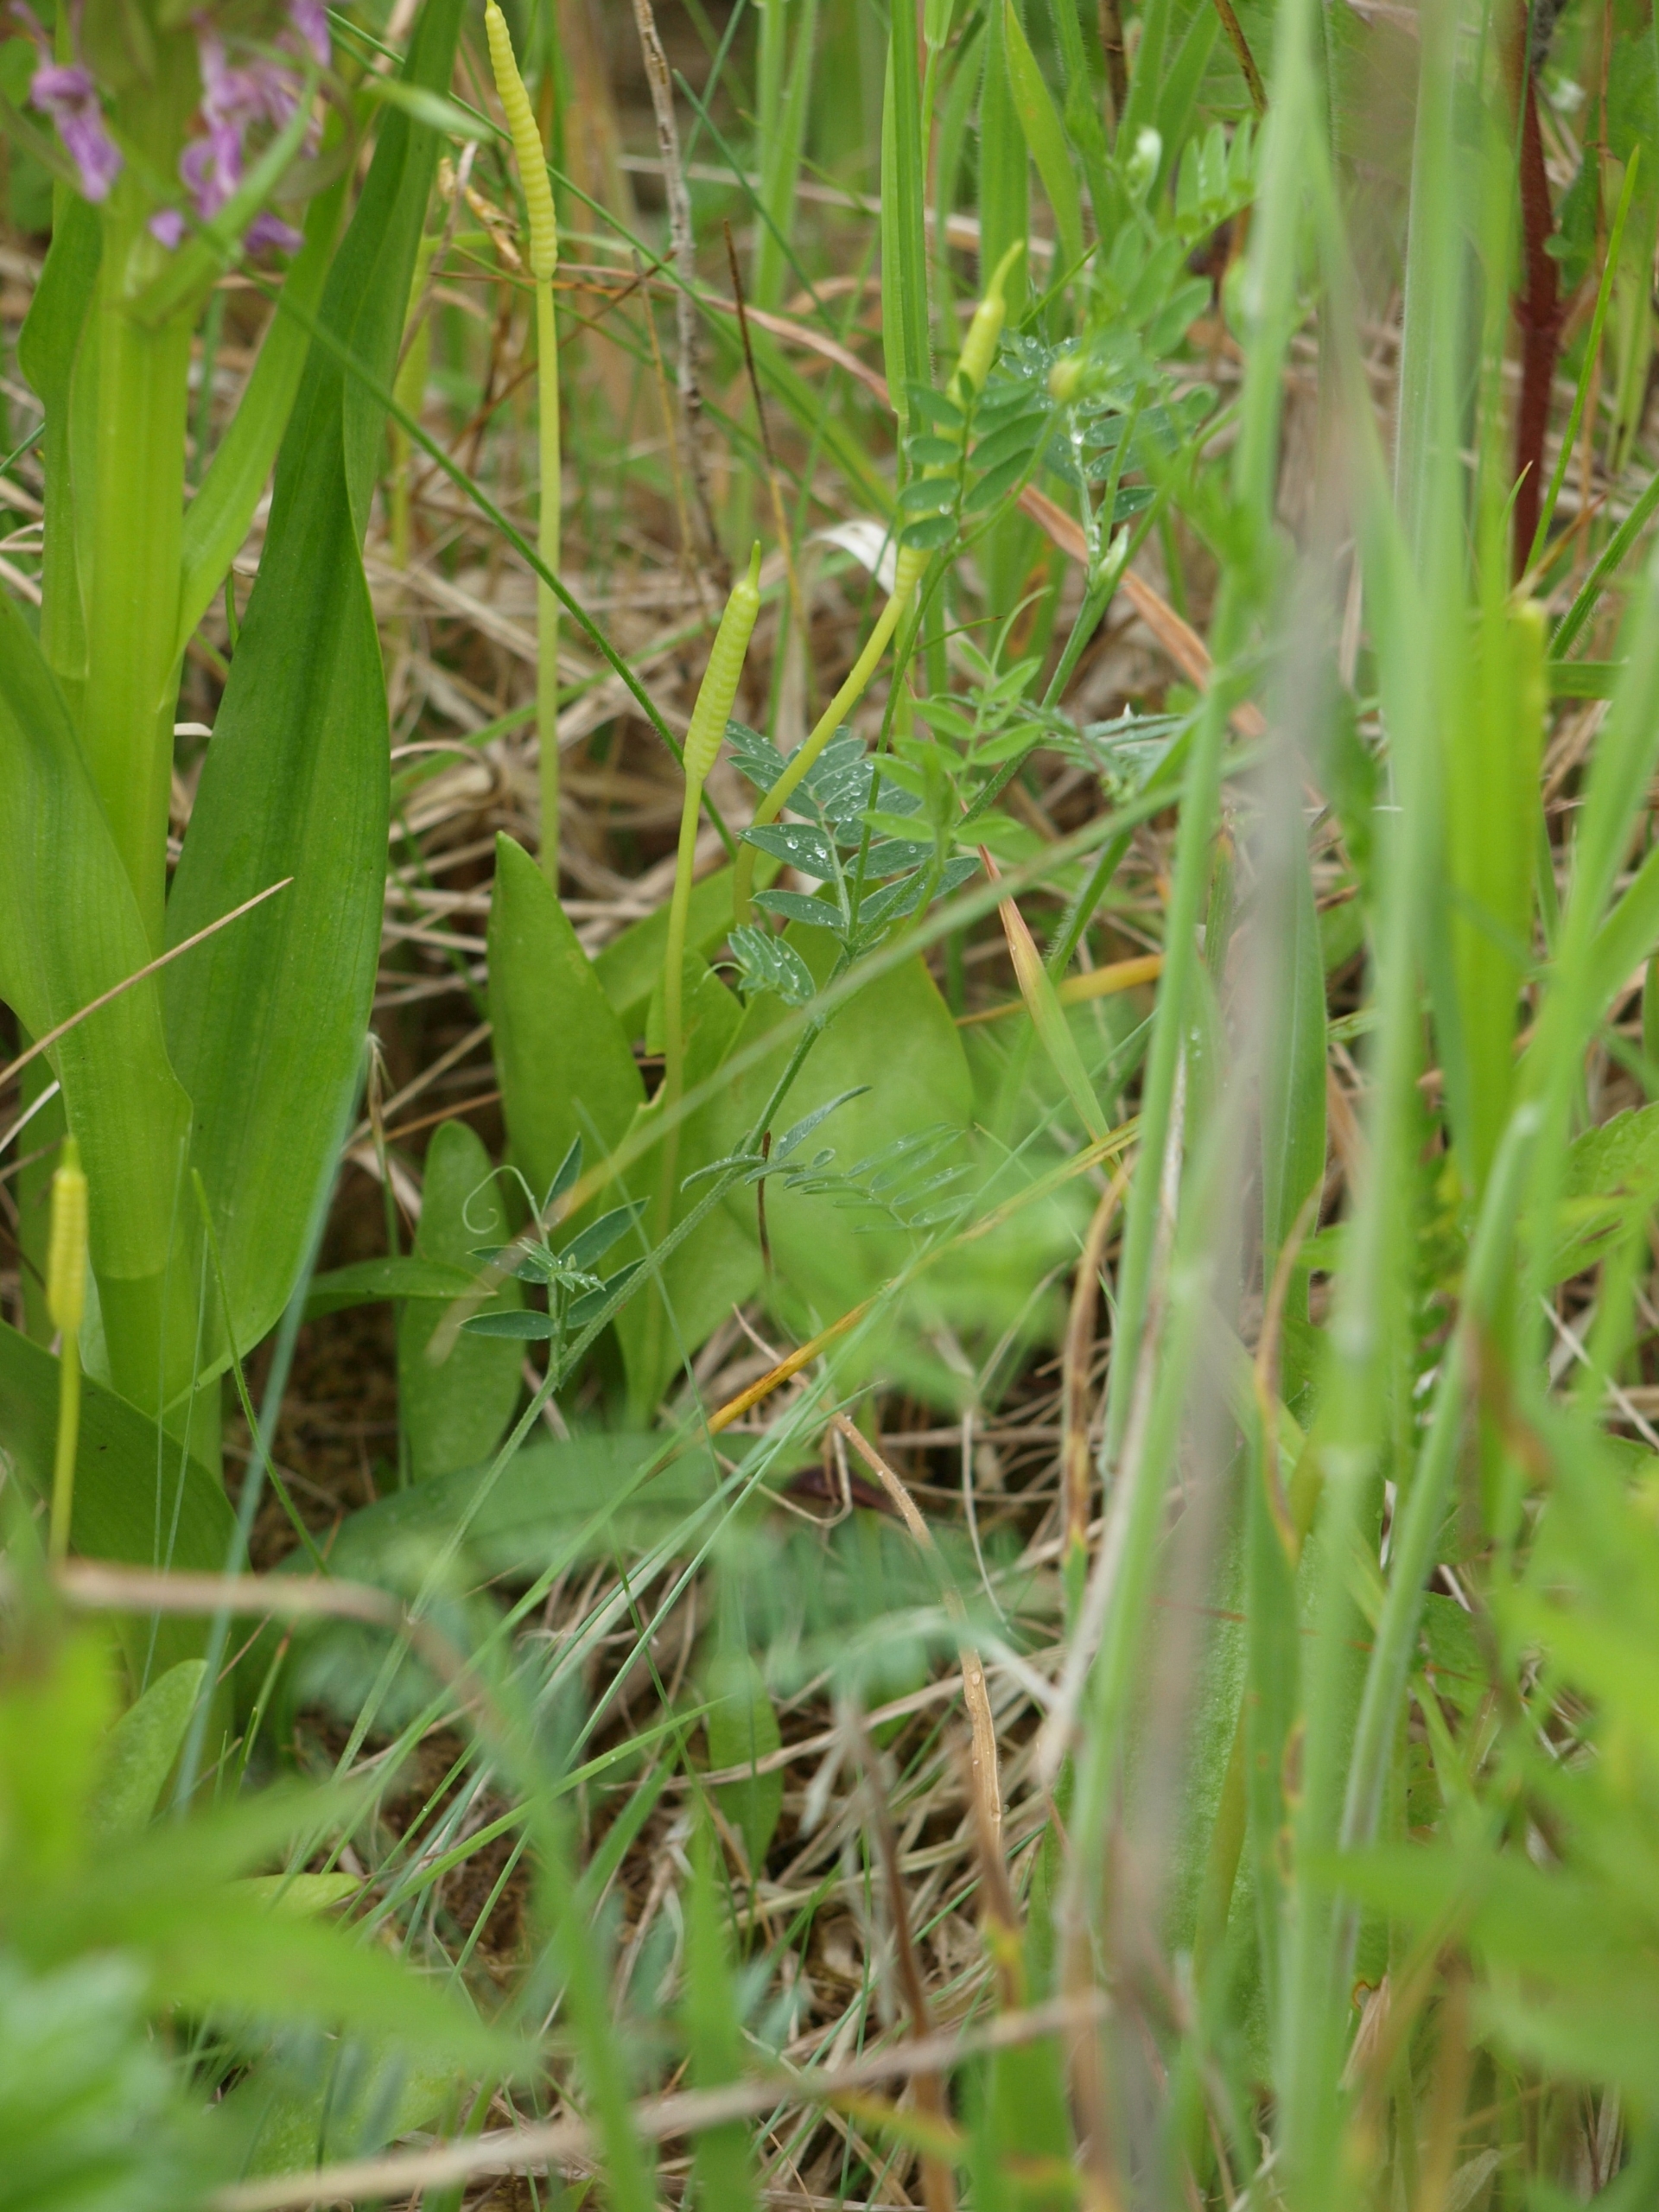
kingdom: Plantae
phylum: Tracheophyta
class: Polypodiopsida
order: Ophioglossales
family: Ophioglossaceae
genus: Ophioglossum
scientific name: Ophioglossum vulgatum
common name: Slangetunge
